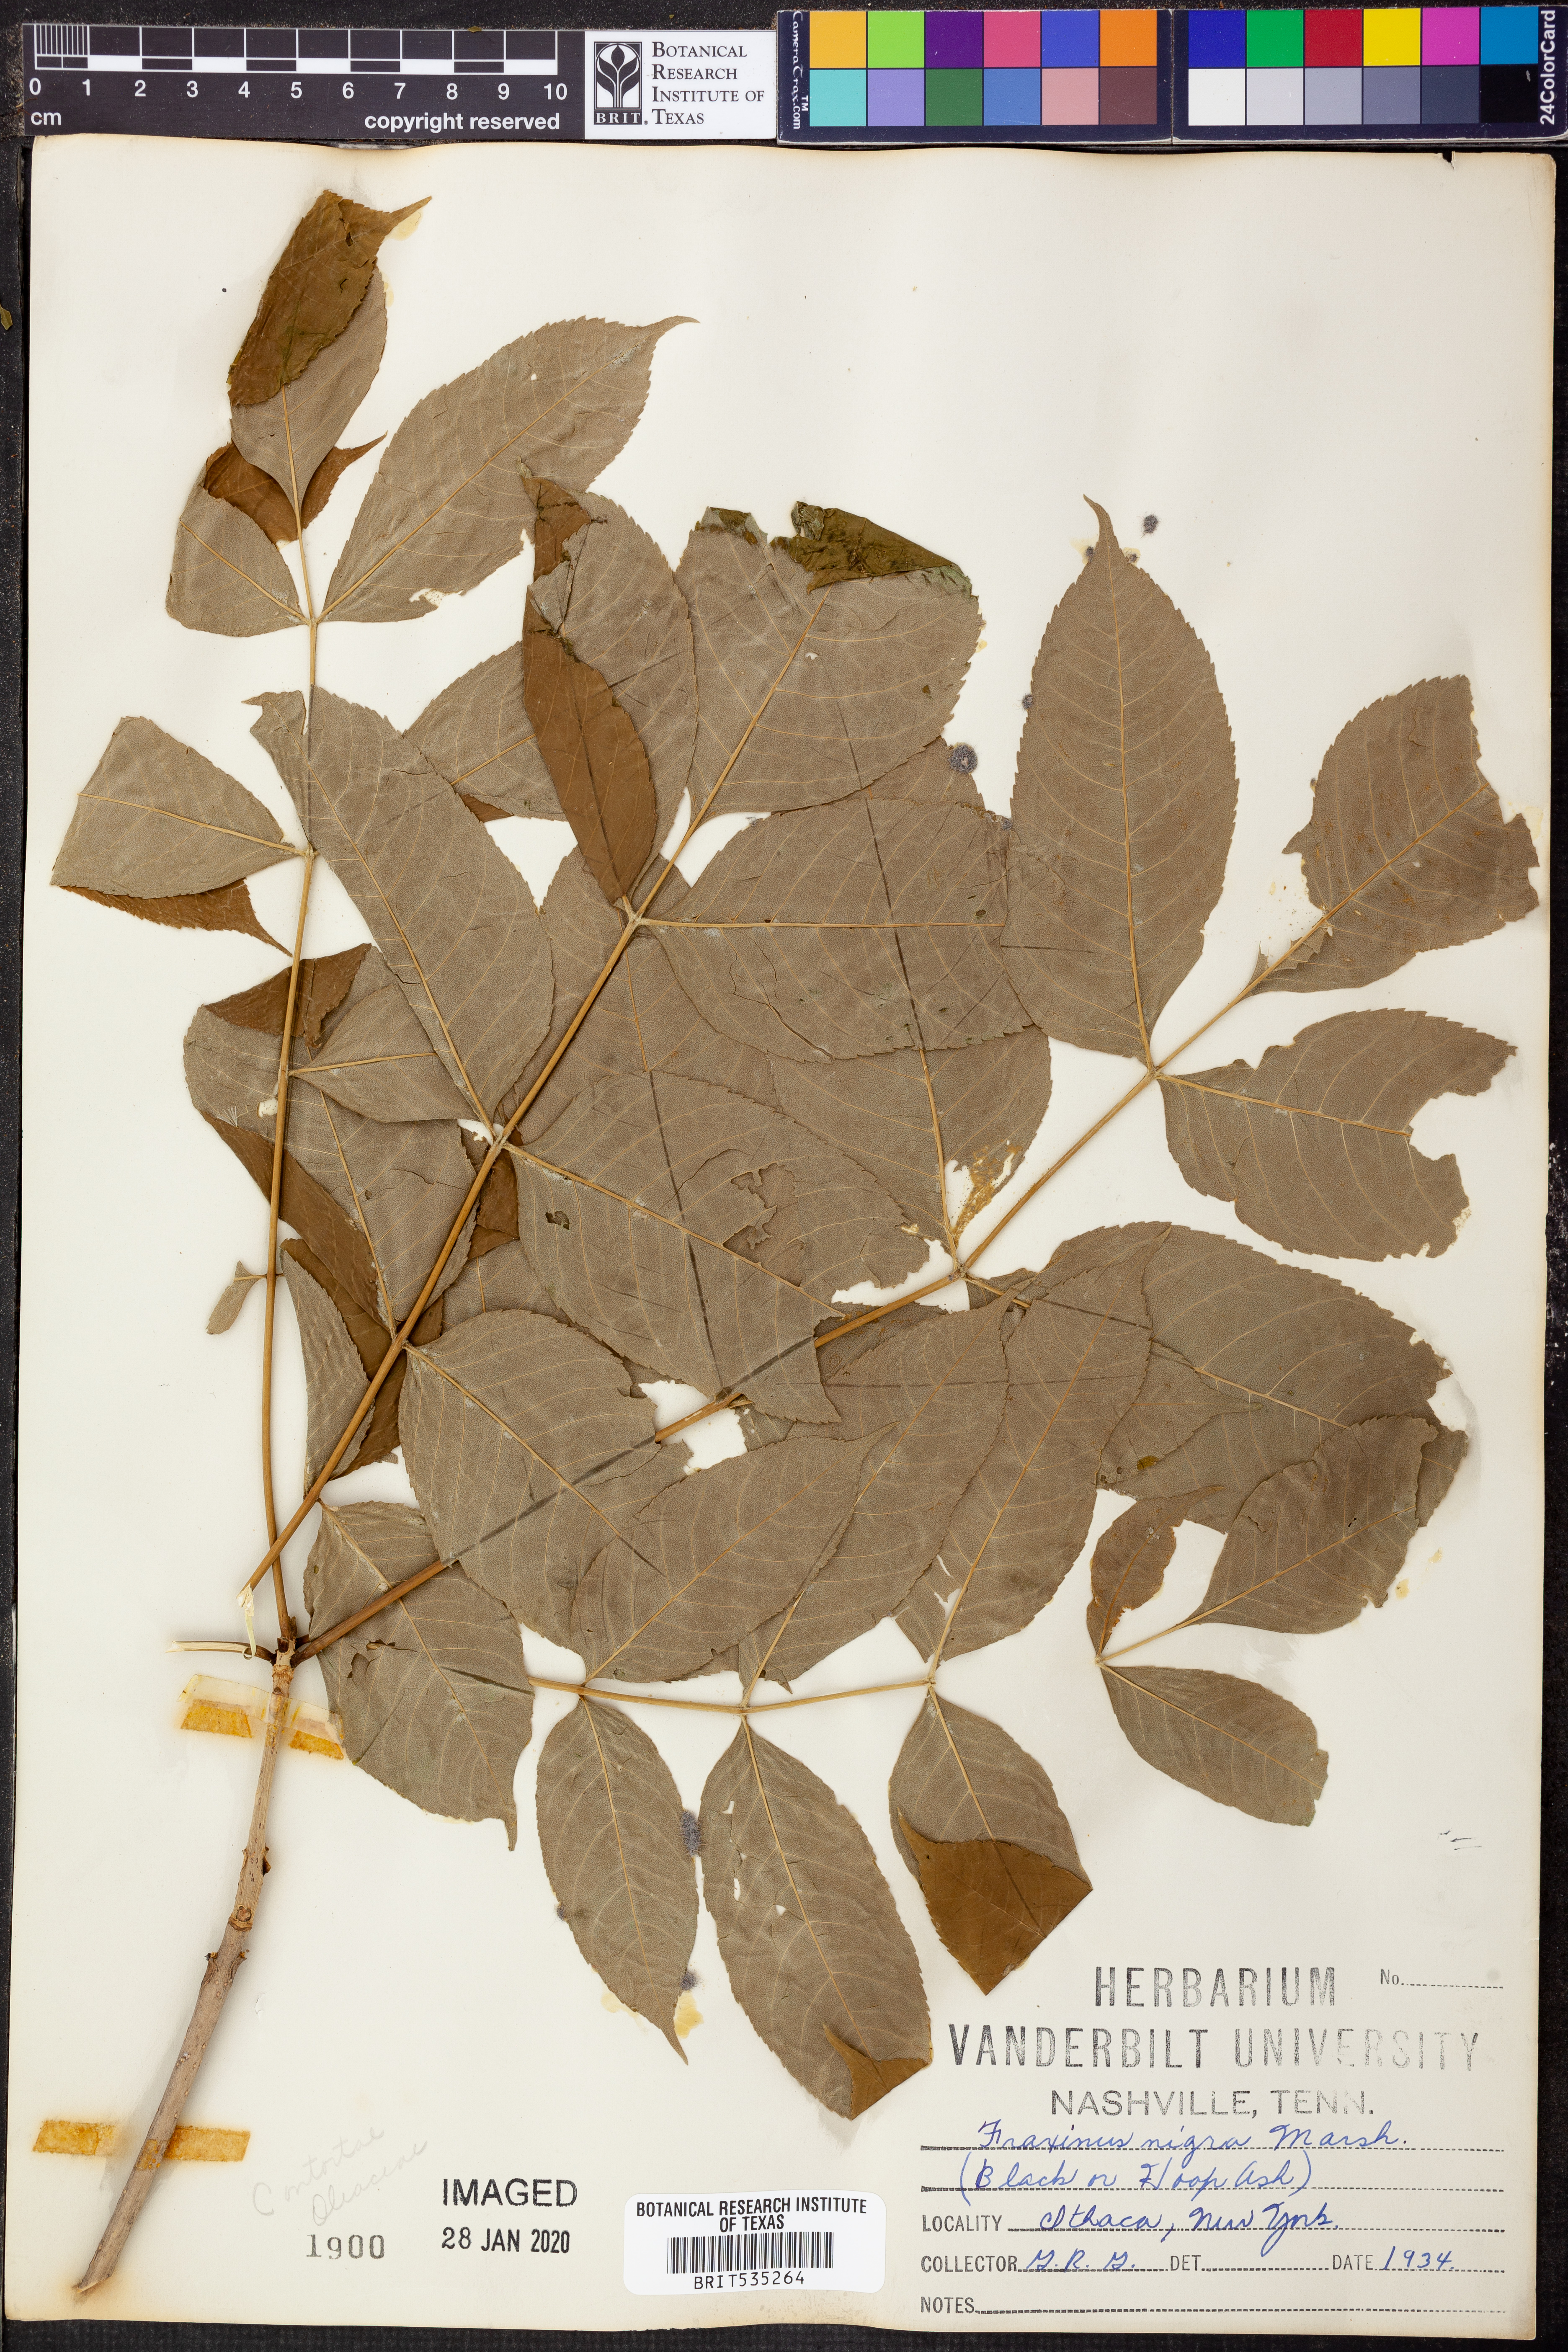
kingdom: Plantae
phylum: Tracheophyta
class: Magnoliopsida
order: Lamiales
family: Oleaceae
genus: Fraxinus
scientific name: Fraxinus nigra
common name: Black ash
